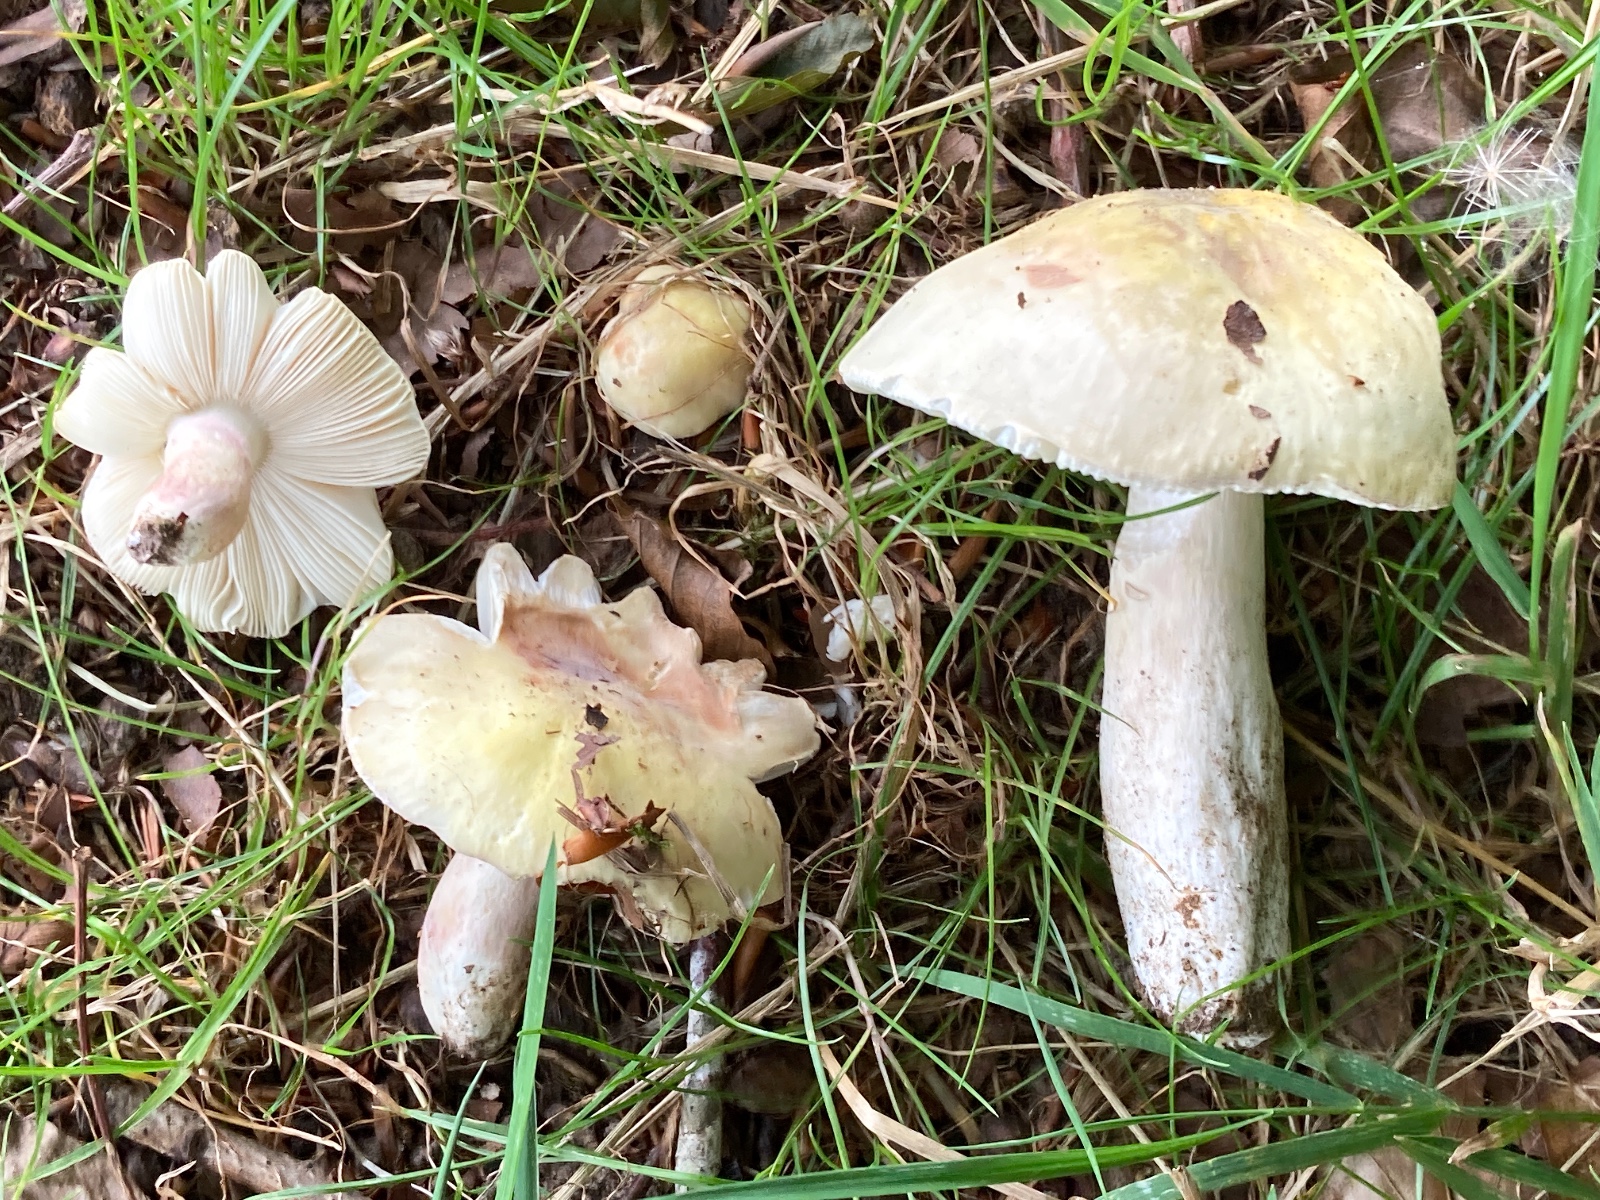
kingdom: Fungi
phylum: Basidiomycota
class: Agaricomycetes
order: Russulales
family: Russulaceae
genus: Russula
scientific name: Russula violeipes
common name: ferskengul skørhat
